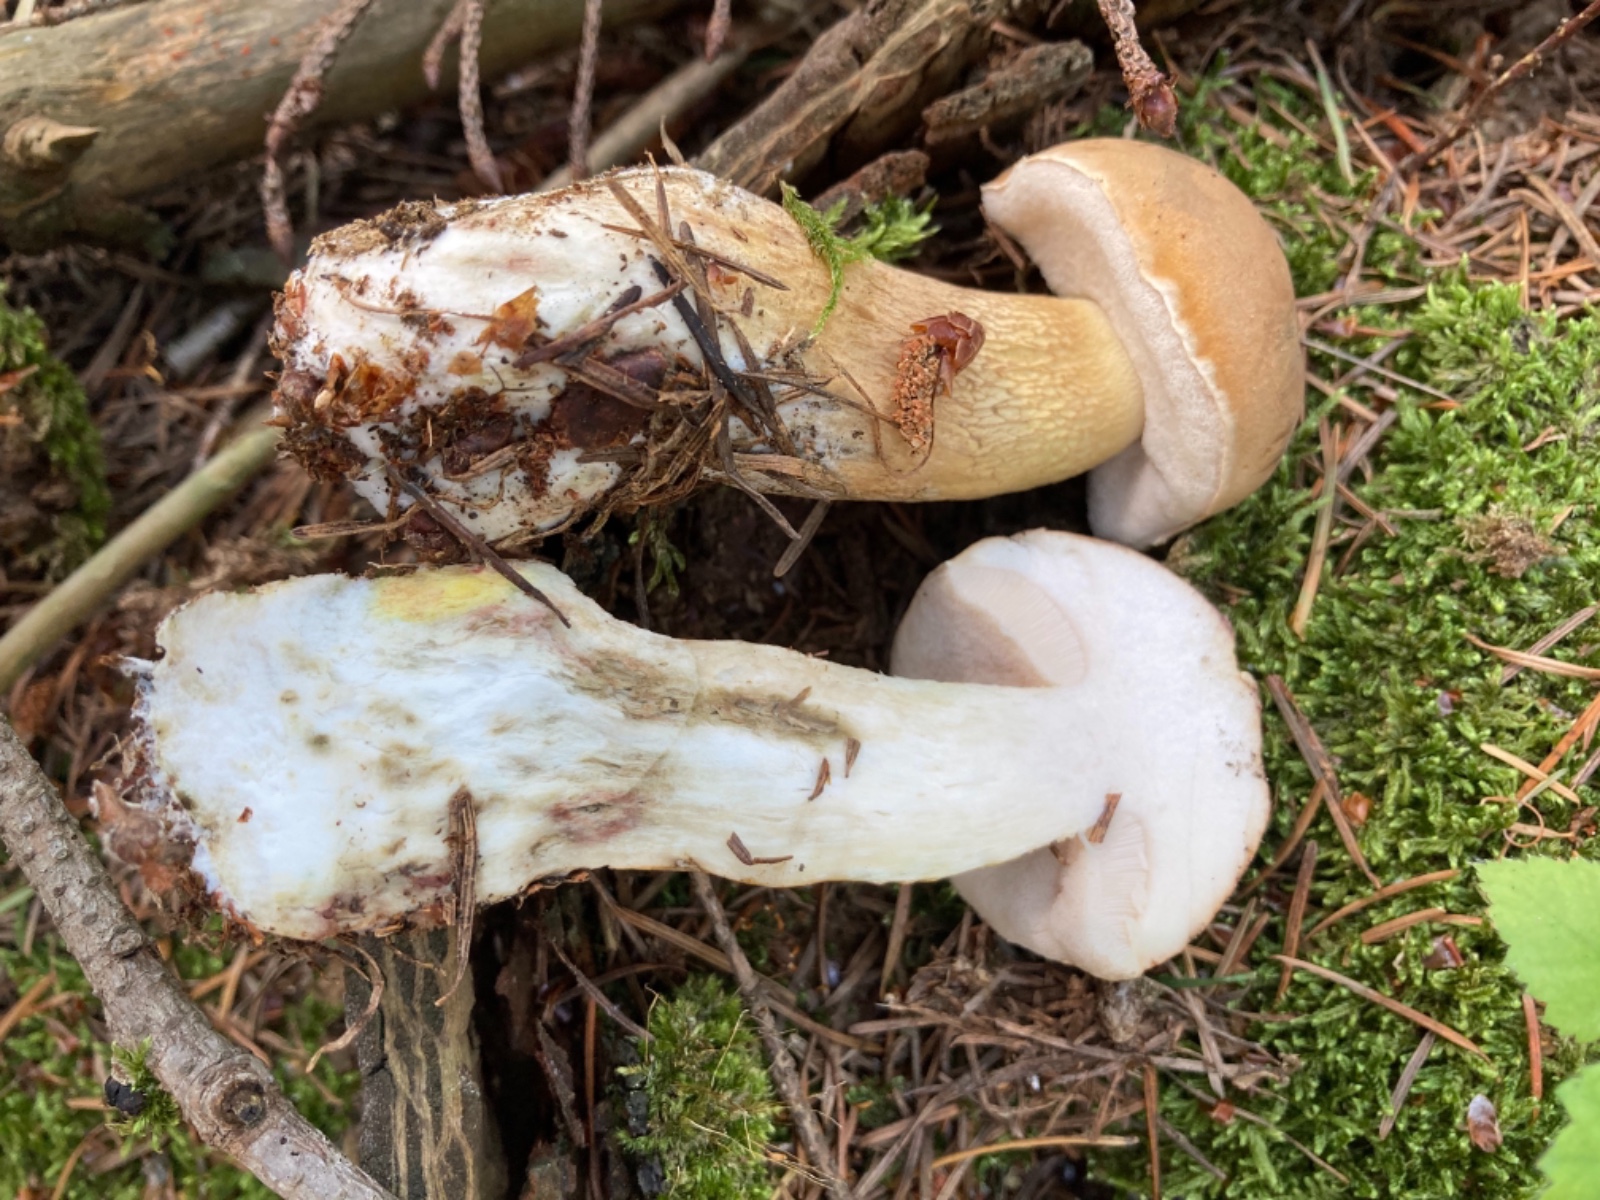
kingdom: Fungi
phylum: Basidiomycota
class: Agaricomycetes
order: Boletales
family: Boletaceae
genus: Tylopilus
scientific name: Tylopilus felleus
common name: galderørhat
